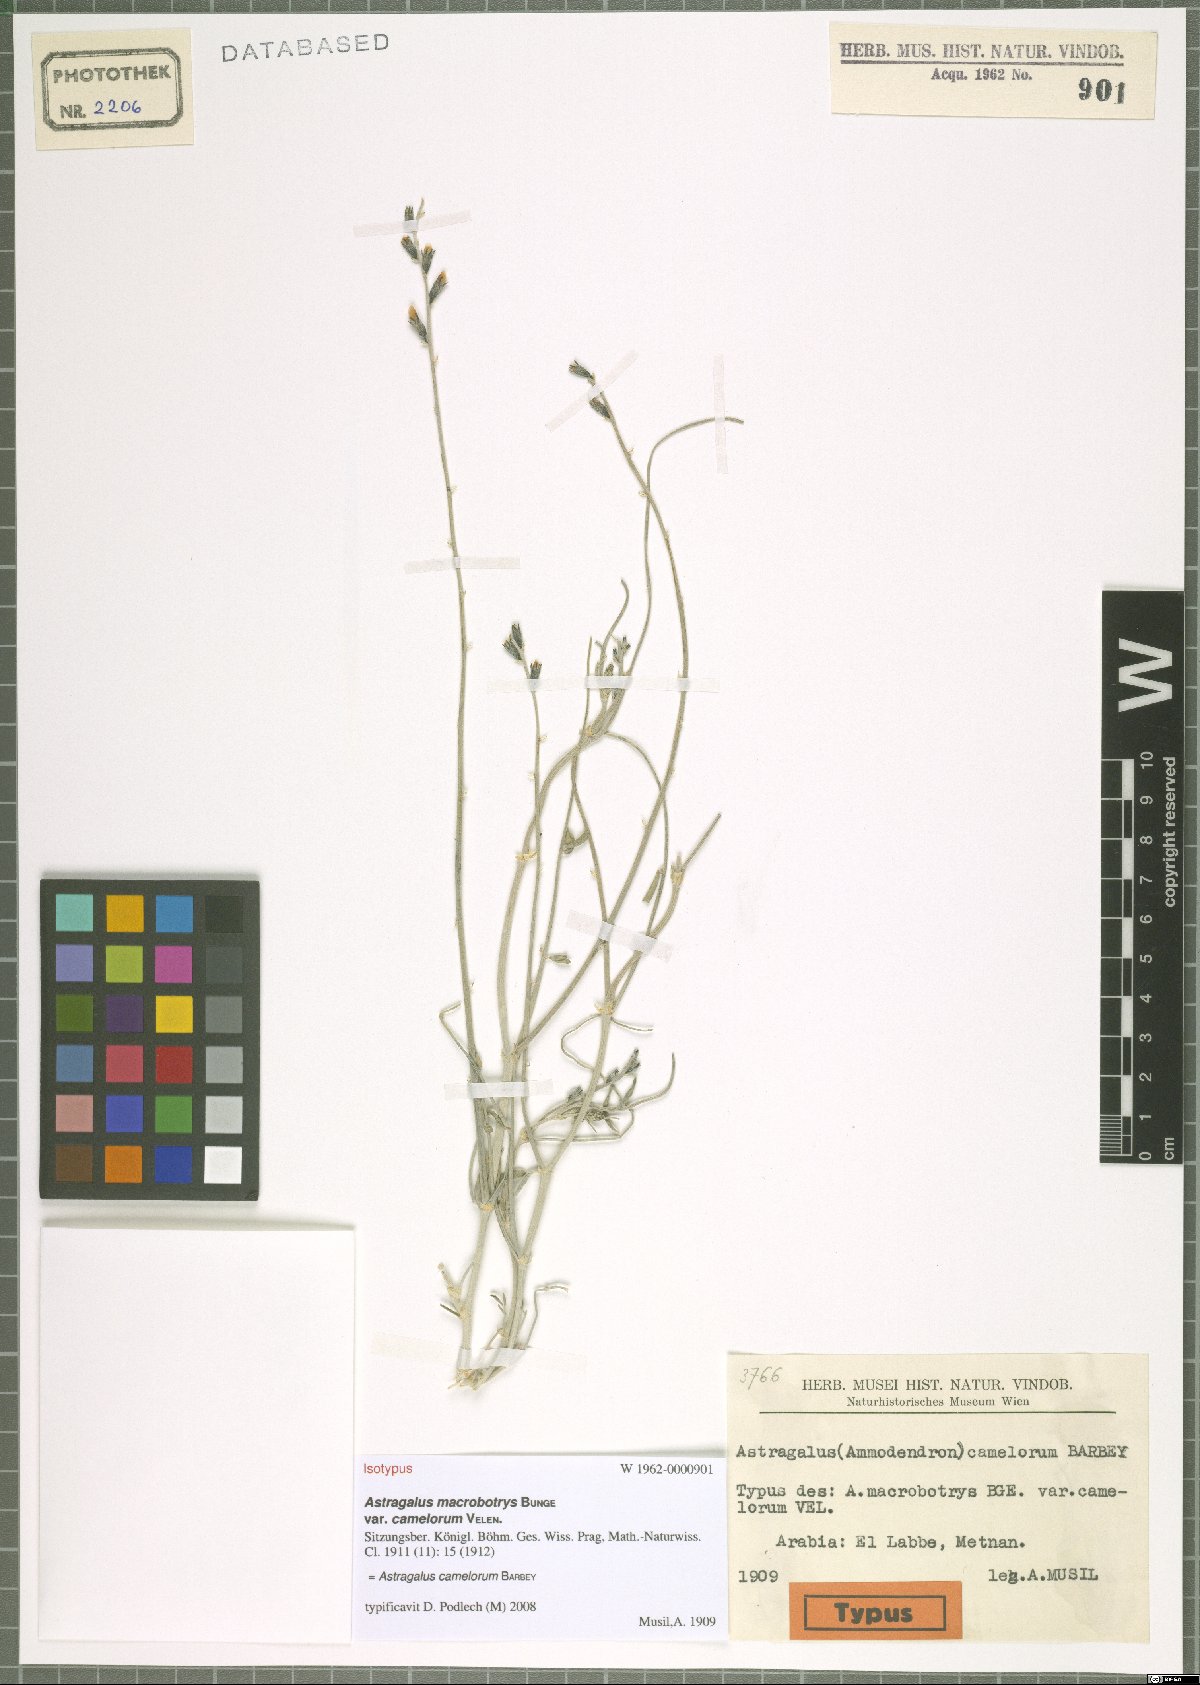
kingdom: Plantae
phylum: Tracheophyta
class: Magnoliopsida
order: Fabales
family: Fabaceae
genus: Astragalus
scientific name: Astragalus camelorum
